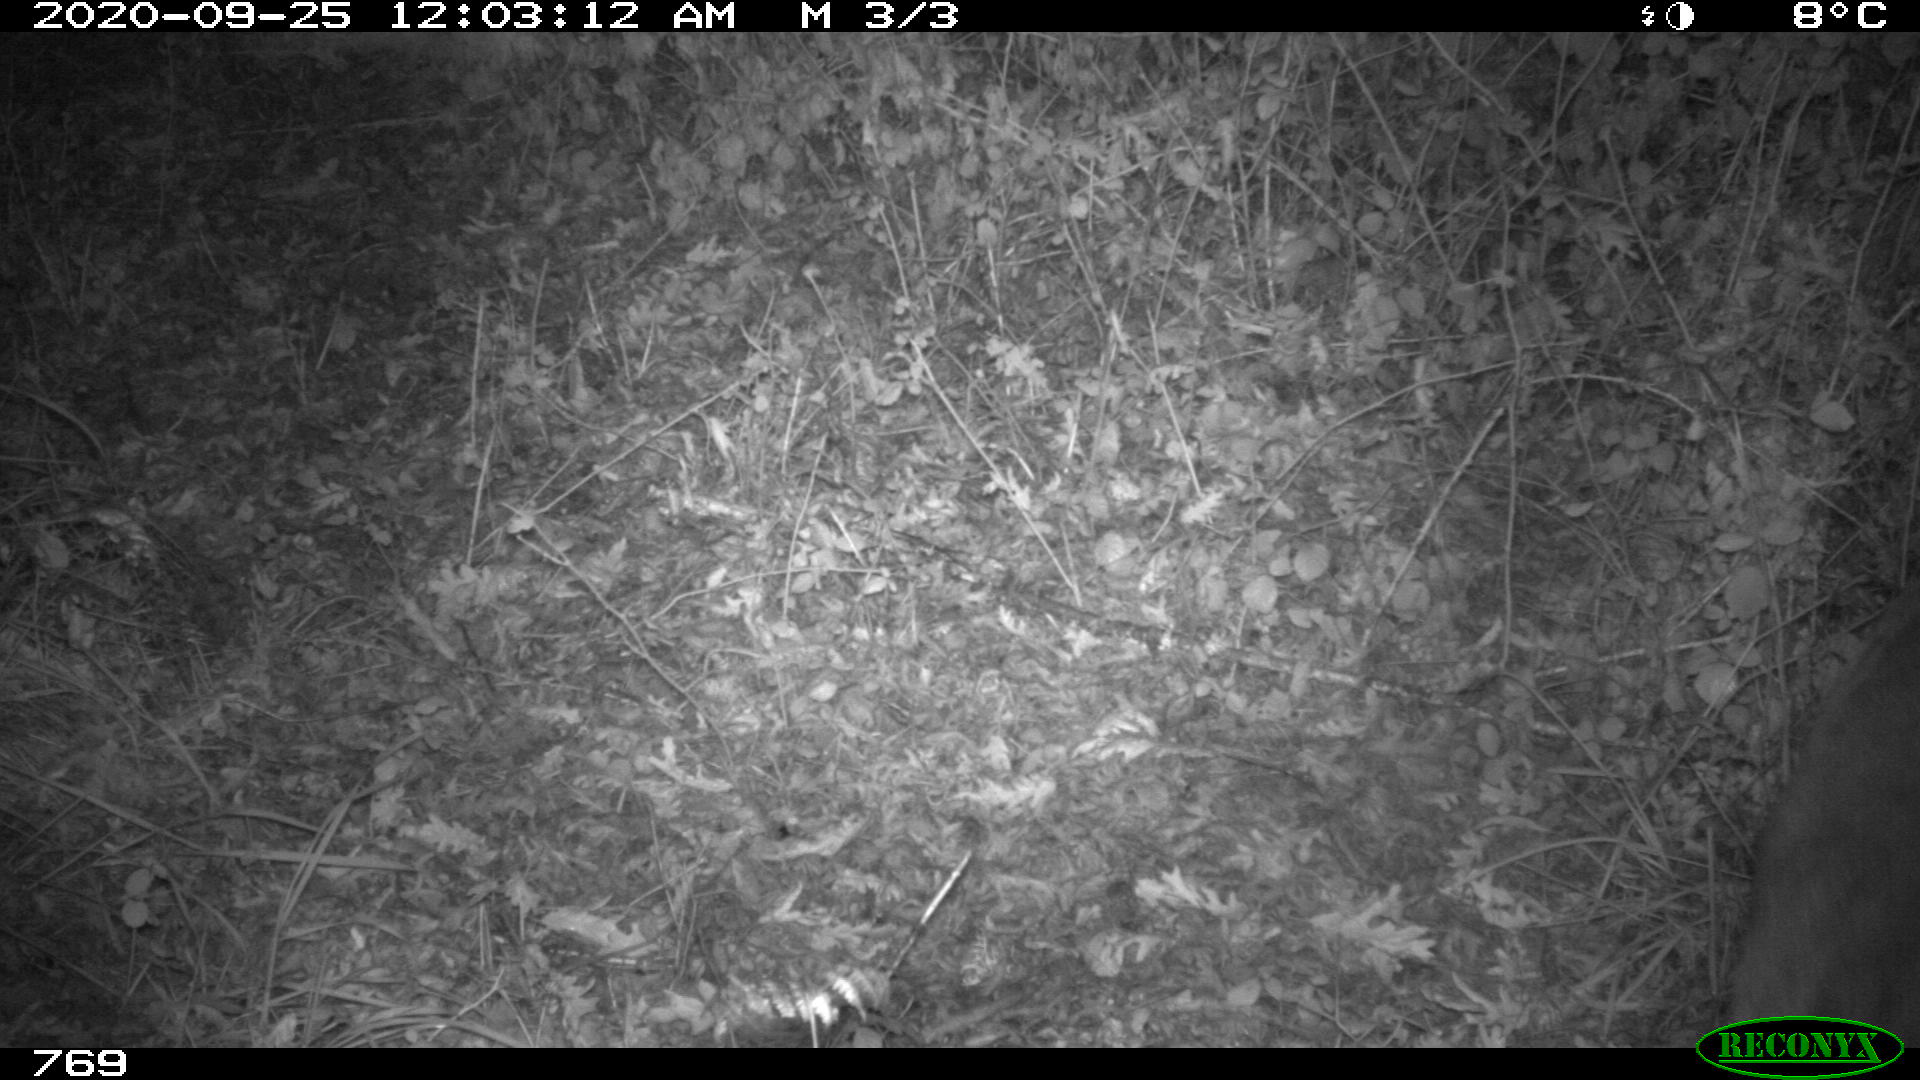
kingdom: Animalia
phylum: Chordata
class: Mammalia
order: Artiodactyla
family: Cervidae
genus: Capreolus
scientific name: Capreolus capreolus
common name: Western roe deer
